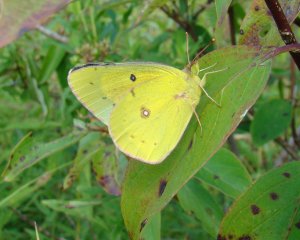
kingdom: Animalia
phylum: Arthropoda
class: Insecta
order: Lepidoptera
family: Pieridae
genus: Colias
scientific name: Colias eurytheme
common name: Orange Sulphur
